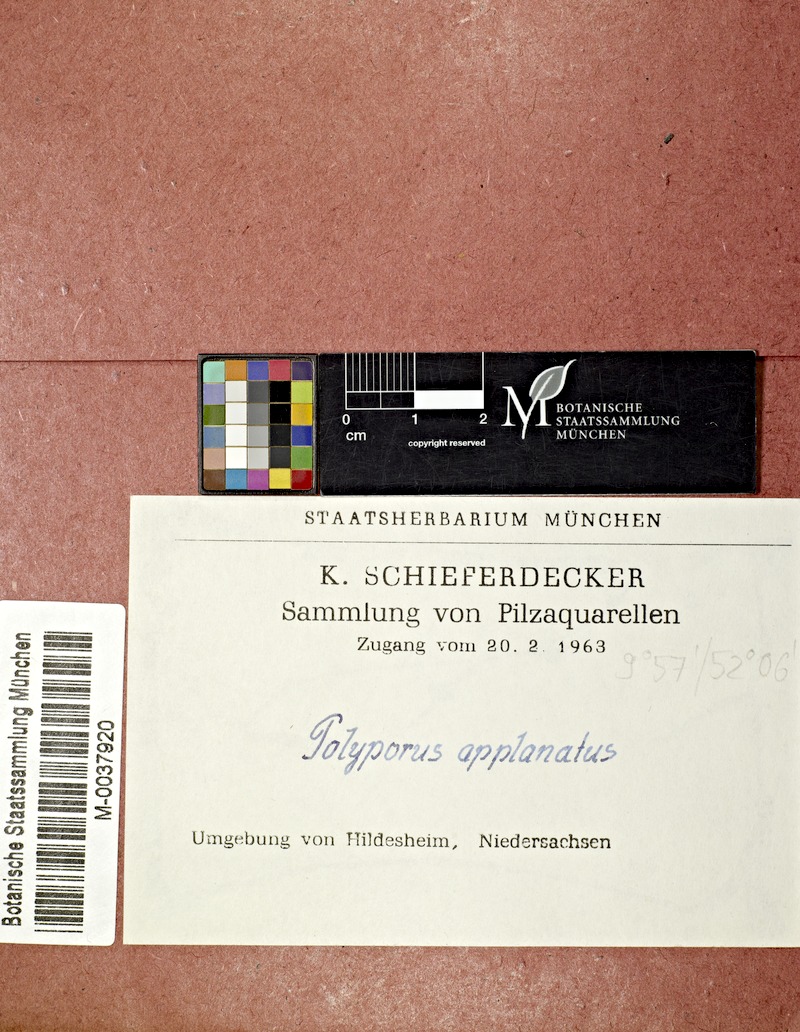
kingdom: Plantae
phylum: Tracheophyta
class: Pinopsida
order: Pinales
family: Pinaceae
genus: Picea
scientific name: Picea
